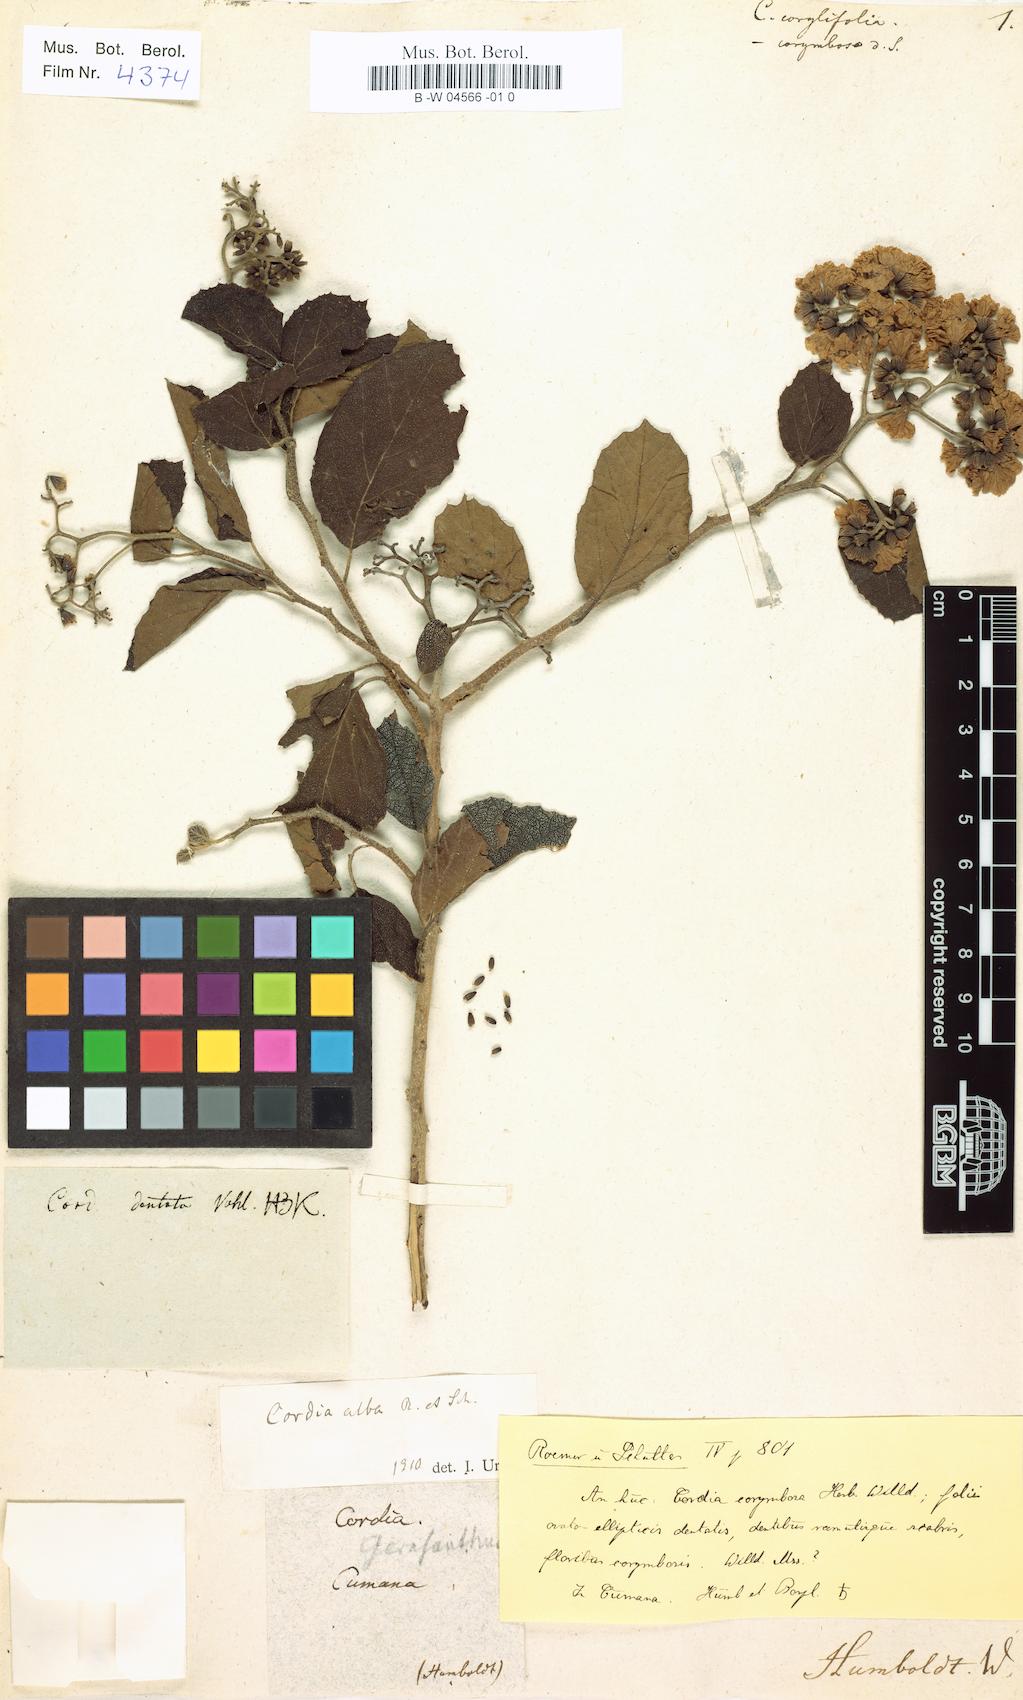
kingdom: Plantae
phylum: Tracheophyta
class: Magnoliopsida
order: Boraginales
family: Cordiaceae
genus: Cordia
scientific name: Cordia dentata
